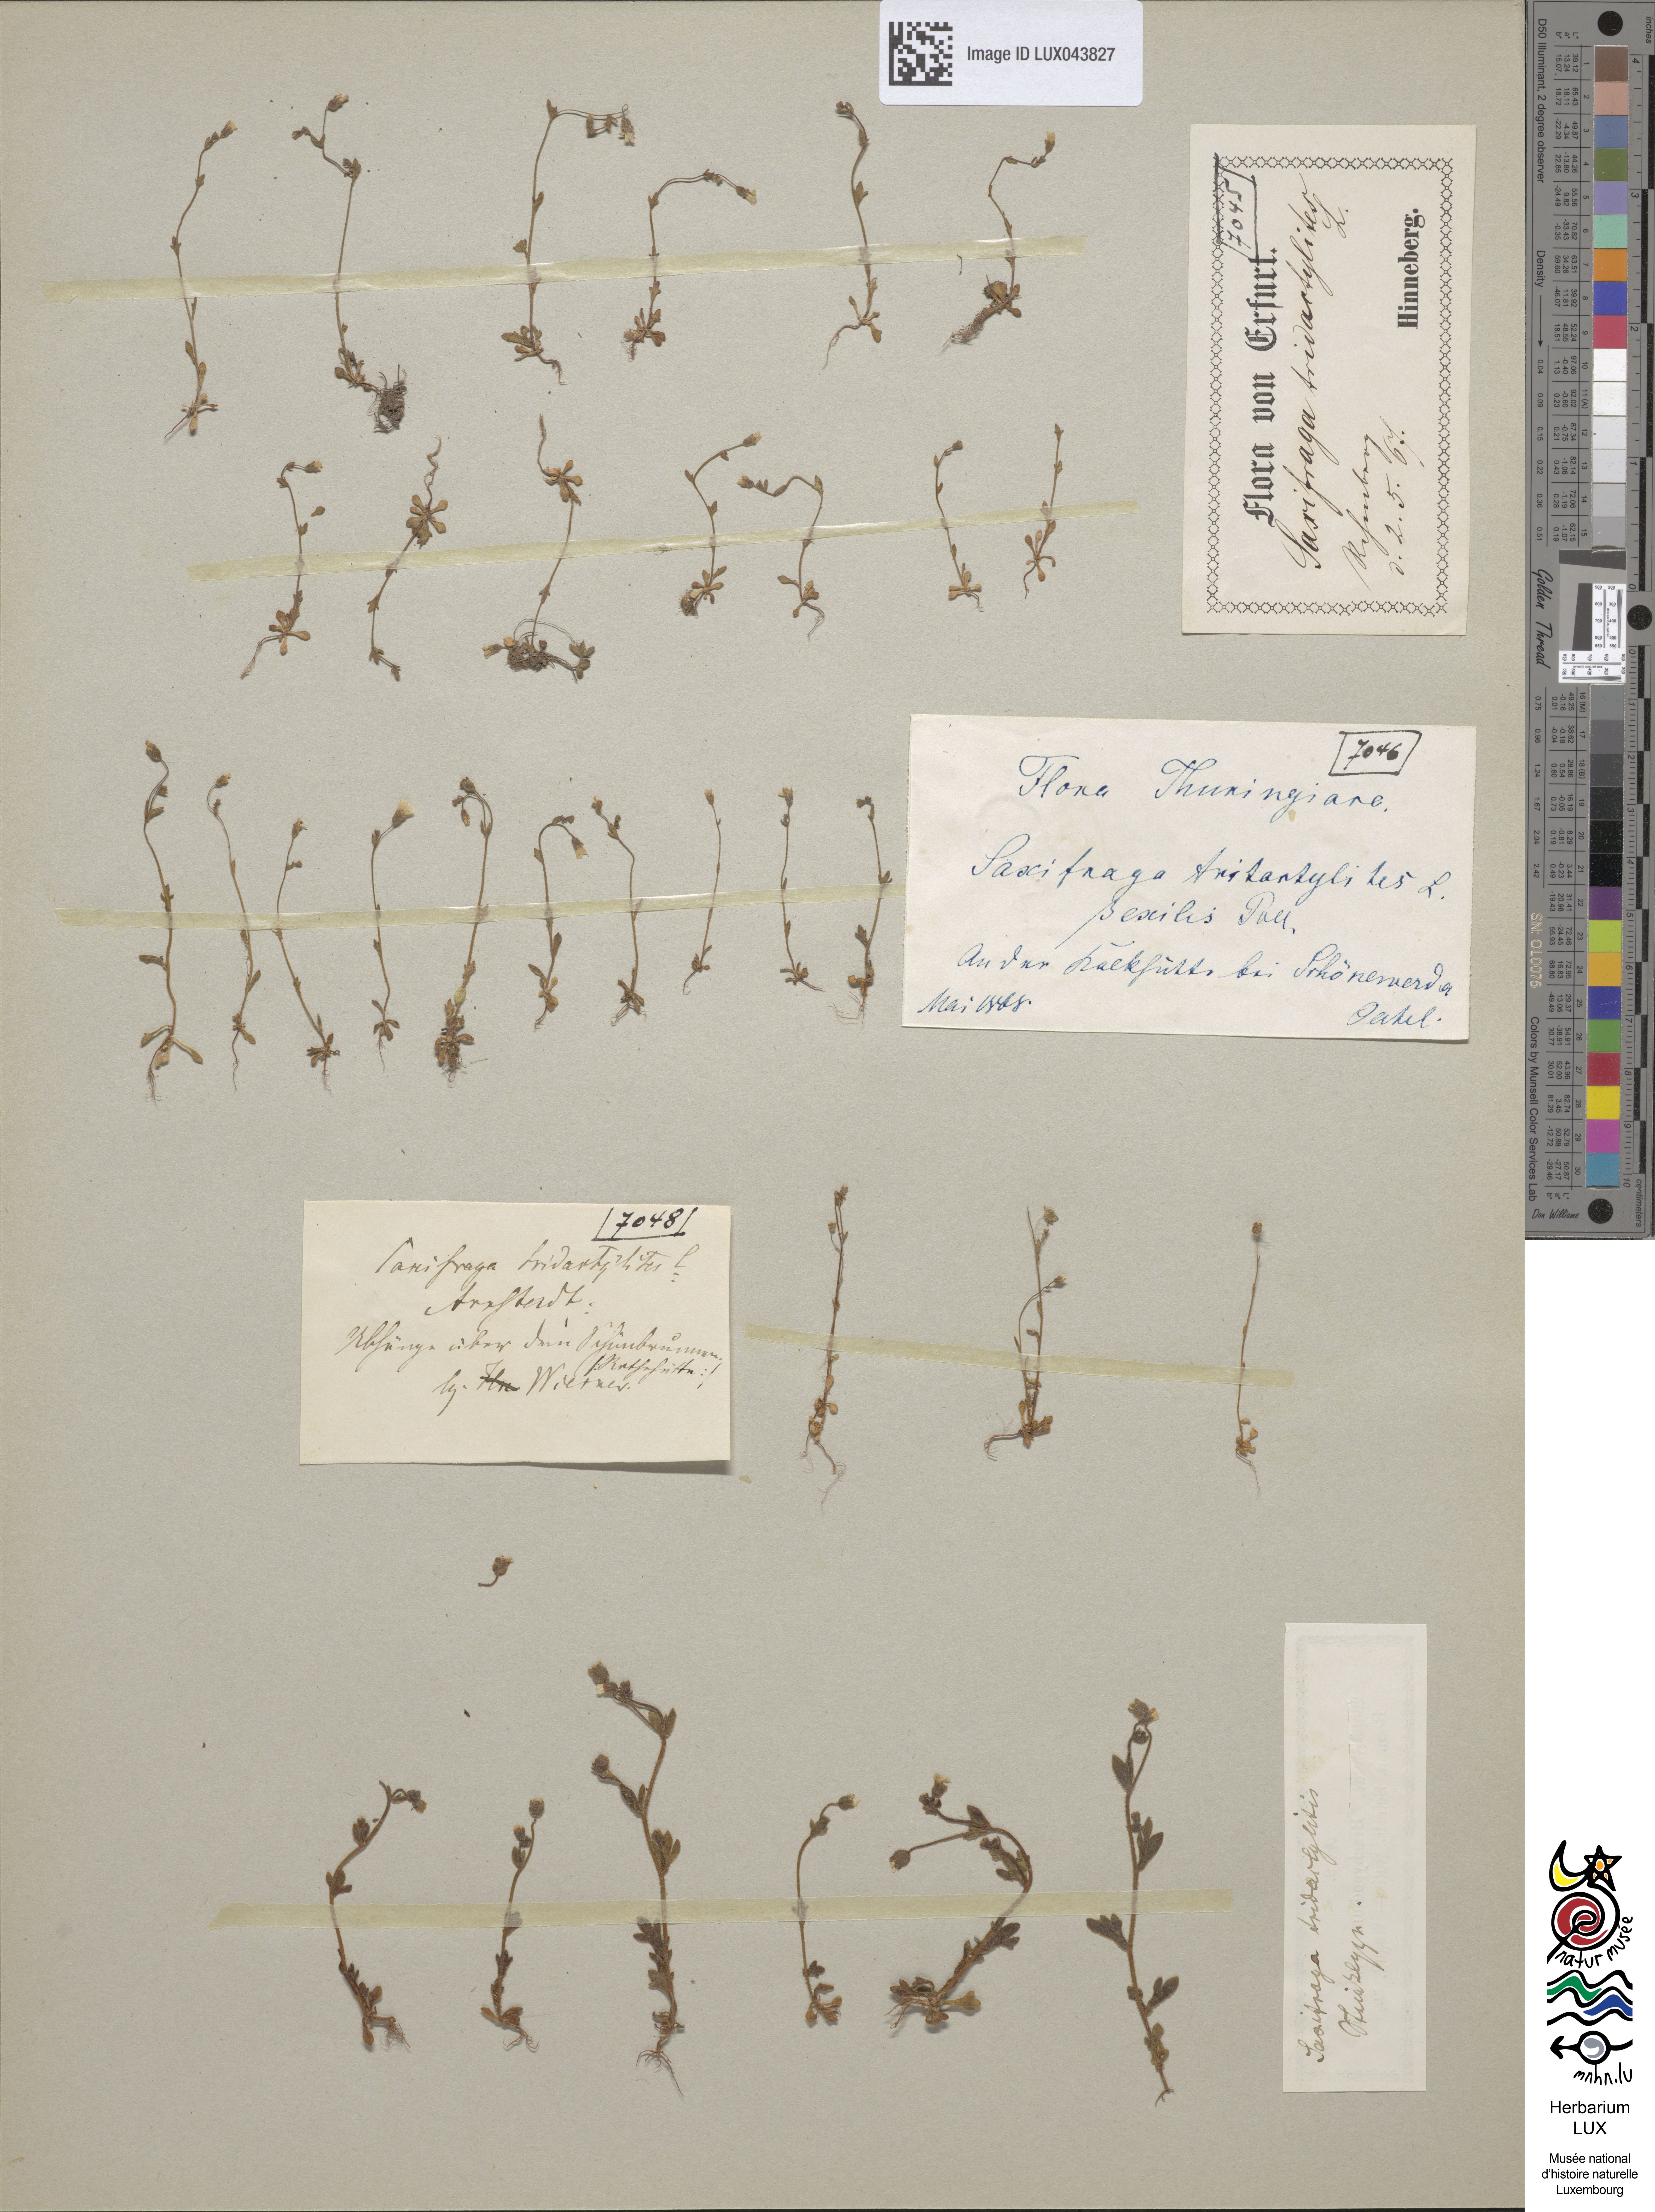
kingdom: Plantae
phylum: Tracheophyta
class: Magnoliopsida
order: Saxifragales
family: Saxifragaceae
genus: Saxifraga
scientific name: Saxifraga tridactylites
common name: Rue-leaved saxifrage
